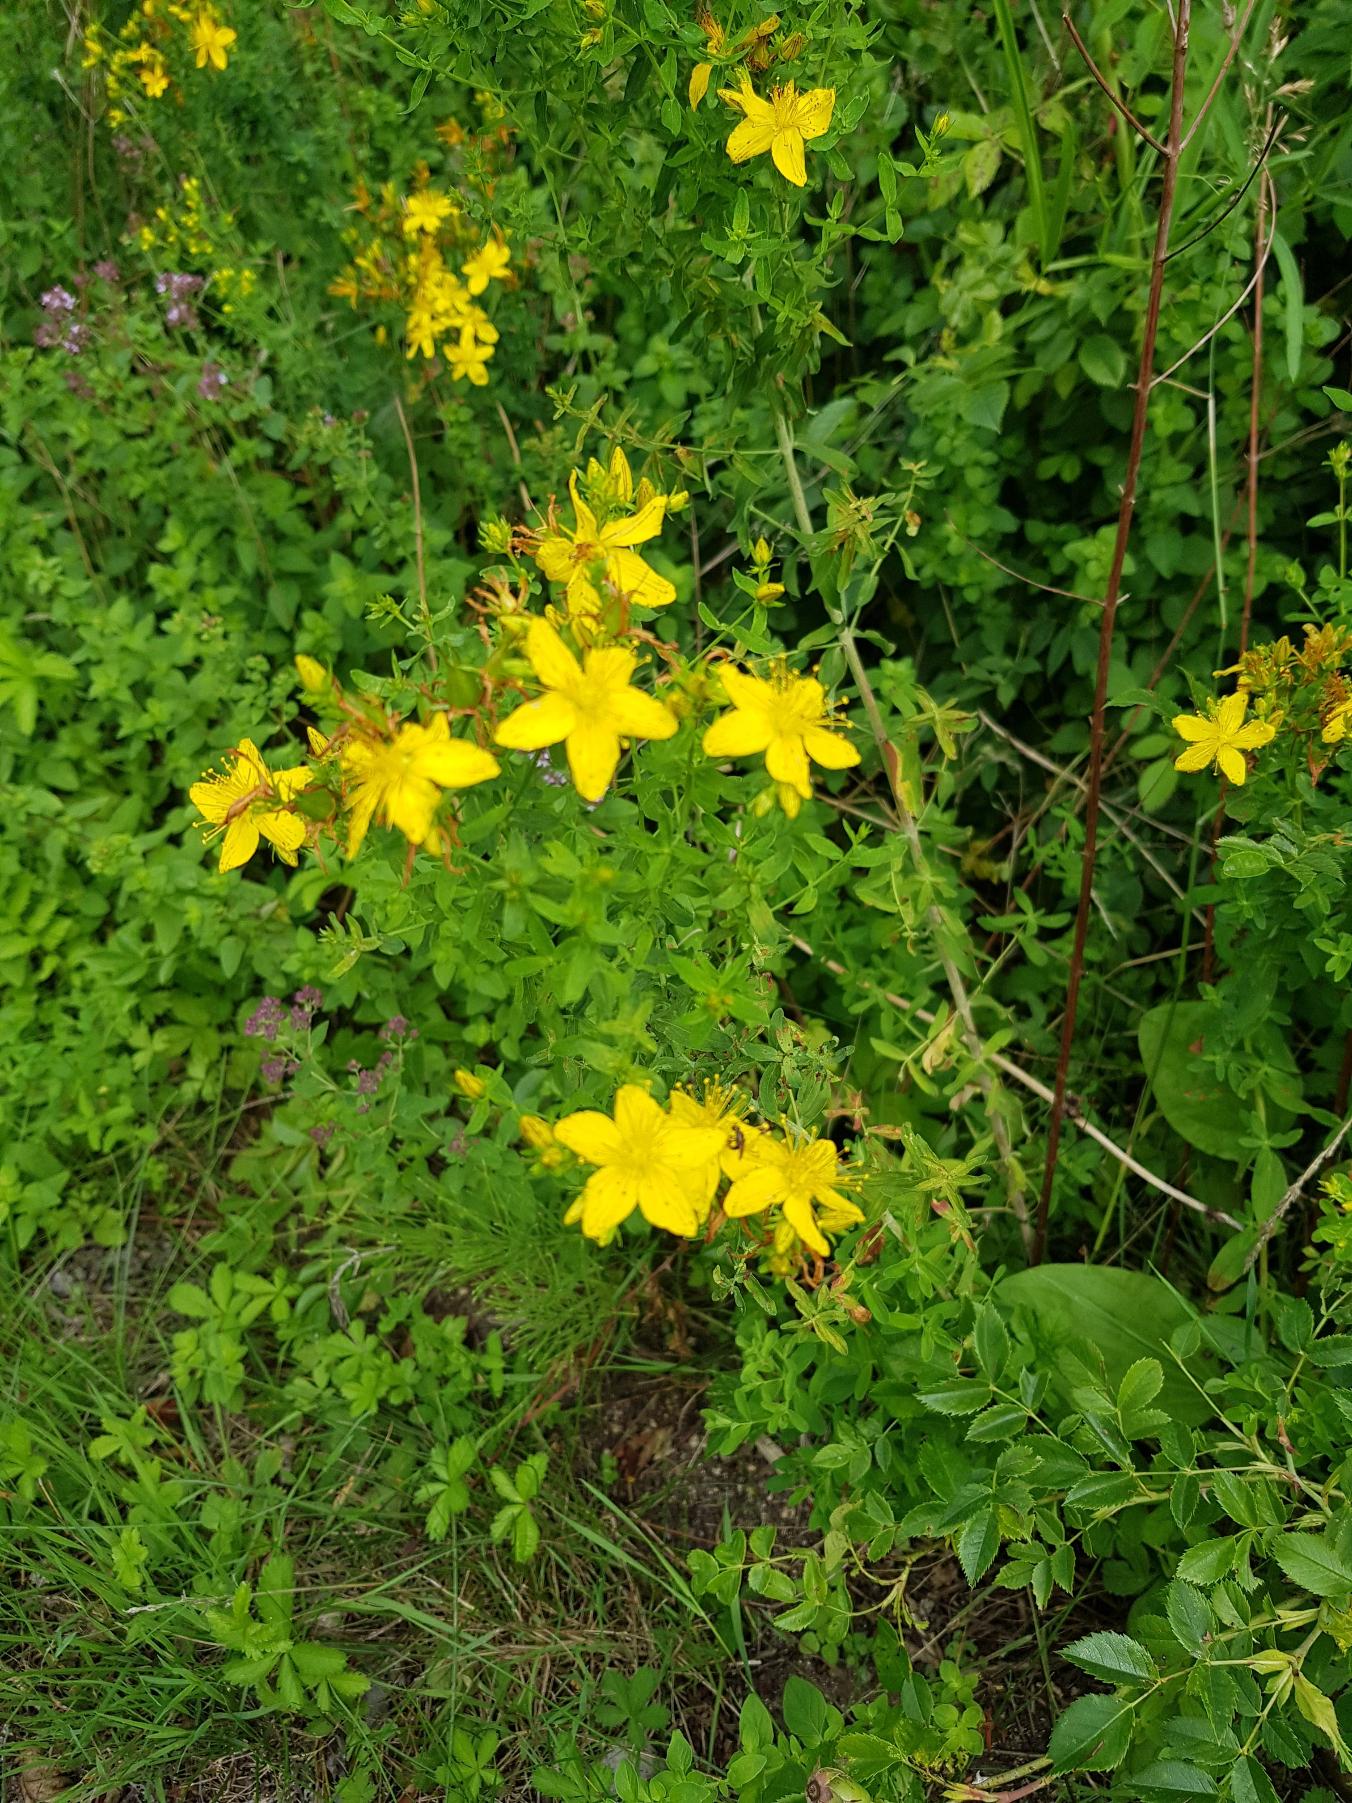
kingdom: Plantae
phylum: Tracheophyta
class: Magnoliopsida
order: Malpighiales
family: Hypericaceae
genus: Hypericum
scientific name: Hypericum perforatum
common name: Prikbladet perikon
